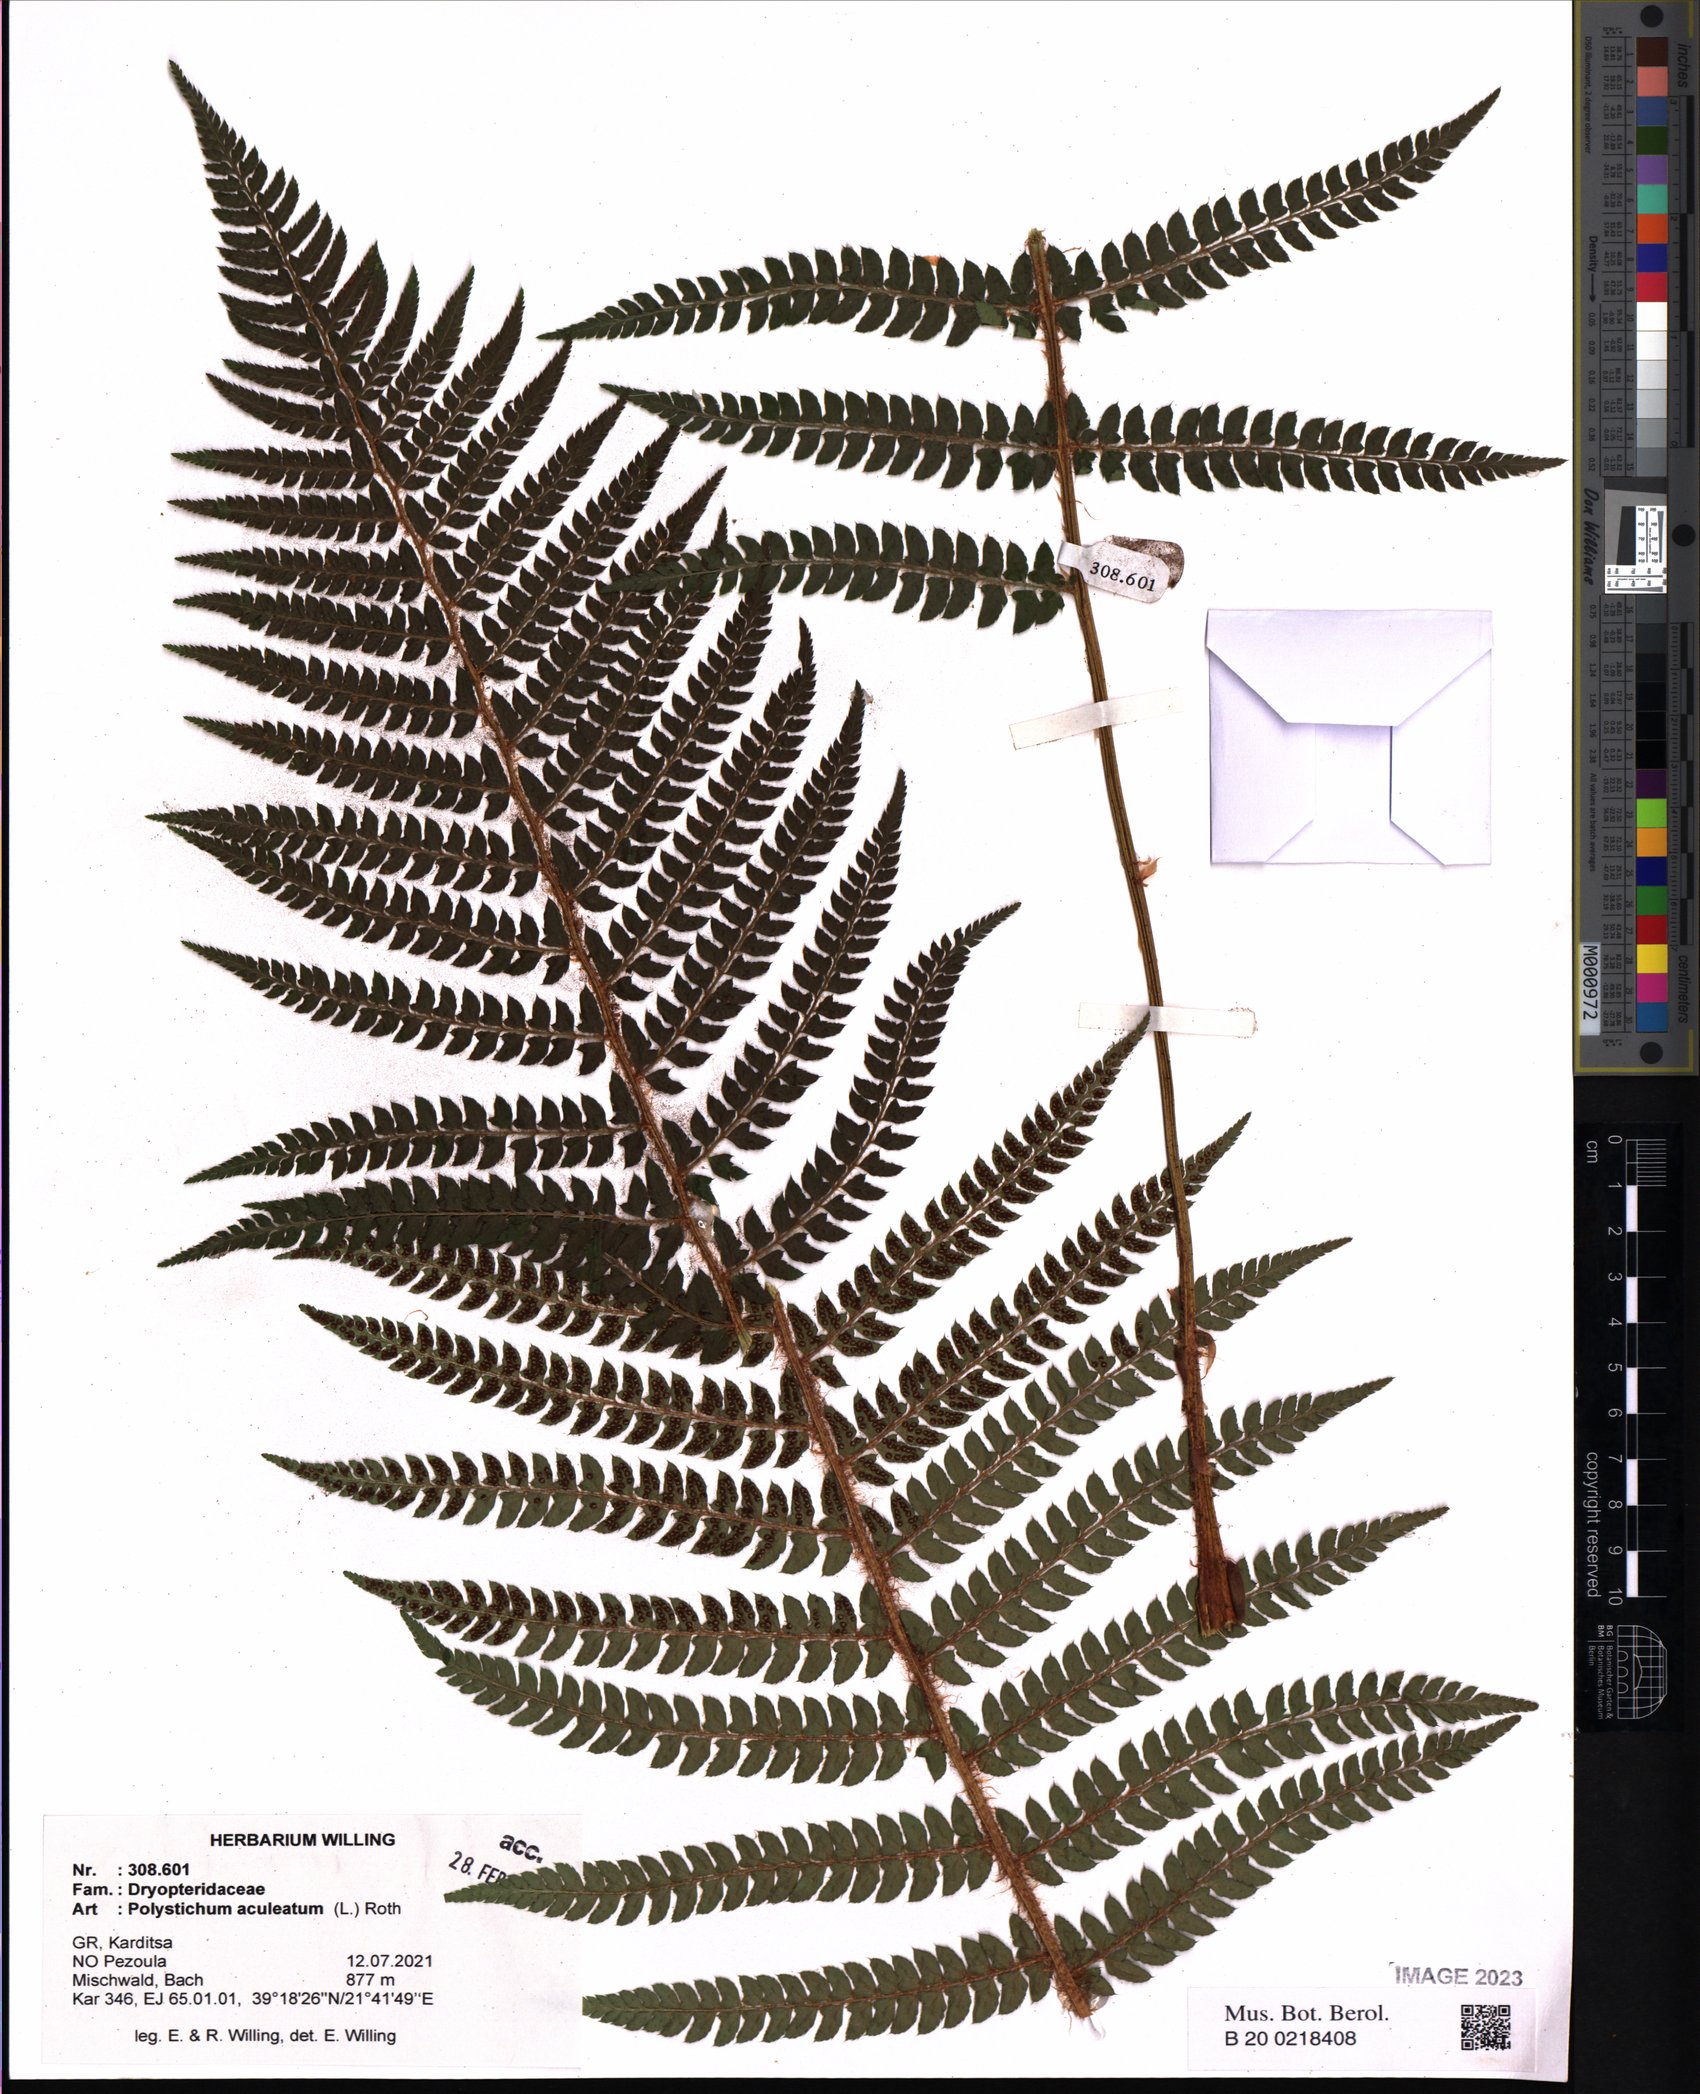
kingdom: Plantae
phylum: Tracheophyta
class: Polypodiopsida
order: Polypodiales
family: Dryopteridaceae
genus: Polystichum
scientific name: Polystichum aculeatum
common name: Hard shield-fern
